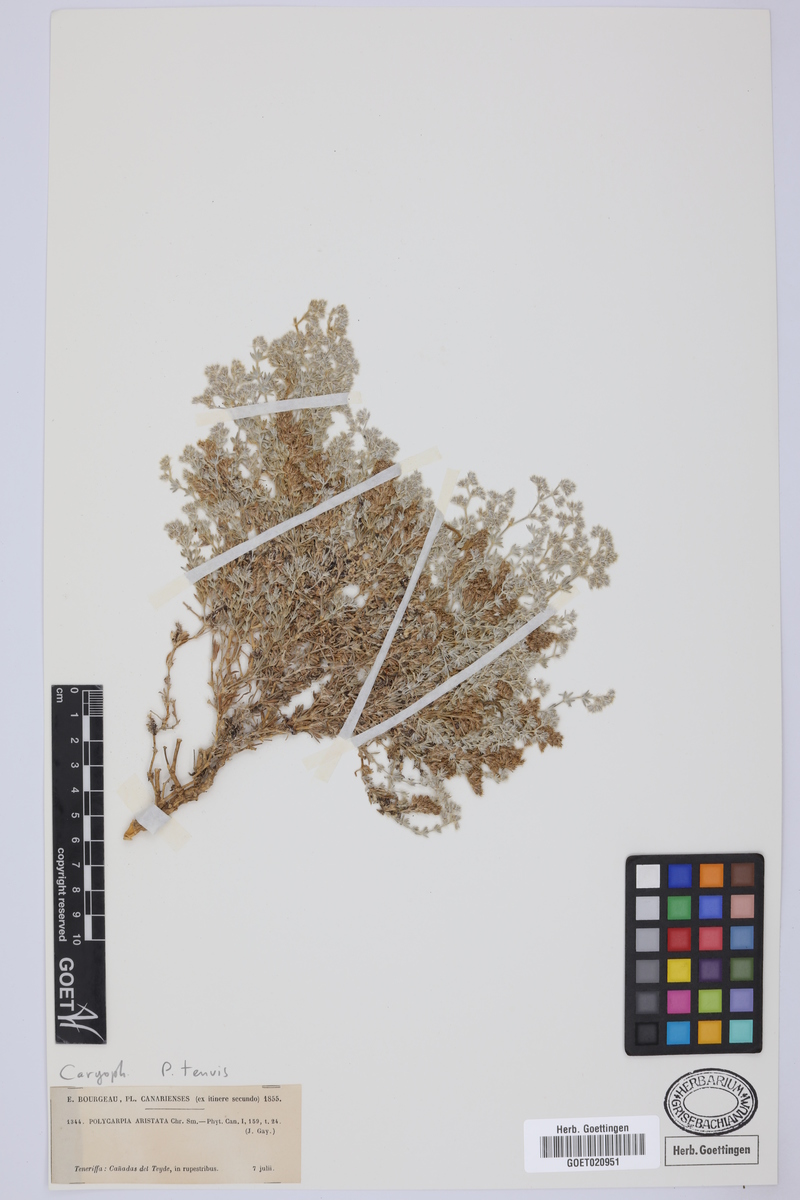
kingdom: Plantae
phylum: Tracheophyta
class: Magnoliopsida
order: Caryophyllales
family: Caryophyllaceae
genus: Polycarpaea
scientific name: Polycarpaea tenuis
